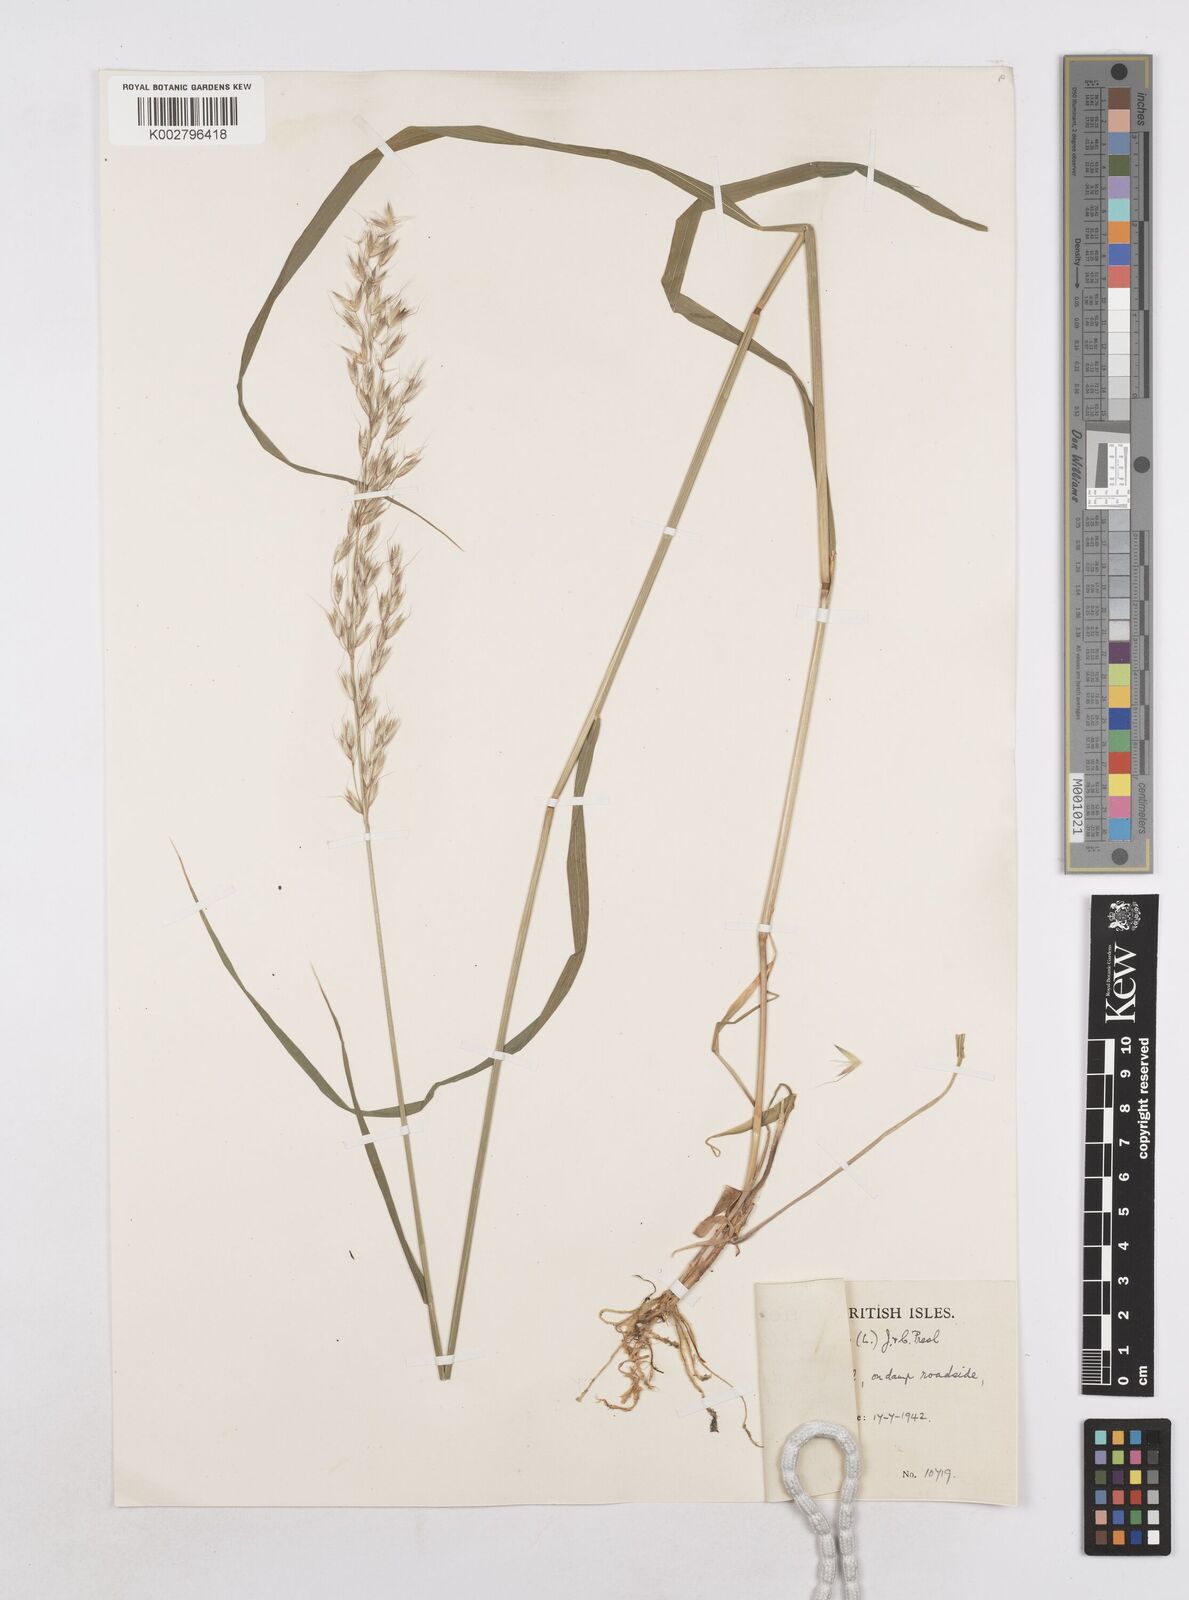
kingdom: Plantae
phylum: Tracheophyta
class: Liliopsida
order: Poales
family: Poaceae
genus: Arrhenatherum
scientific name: Arrhenatherum elatius
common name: Tall oatgrass
